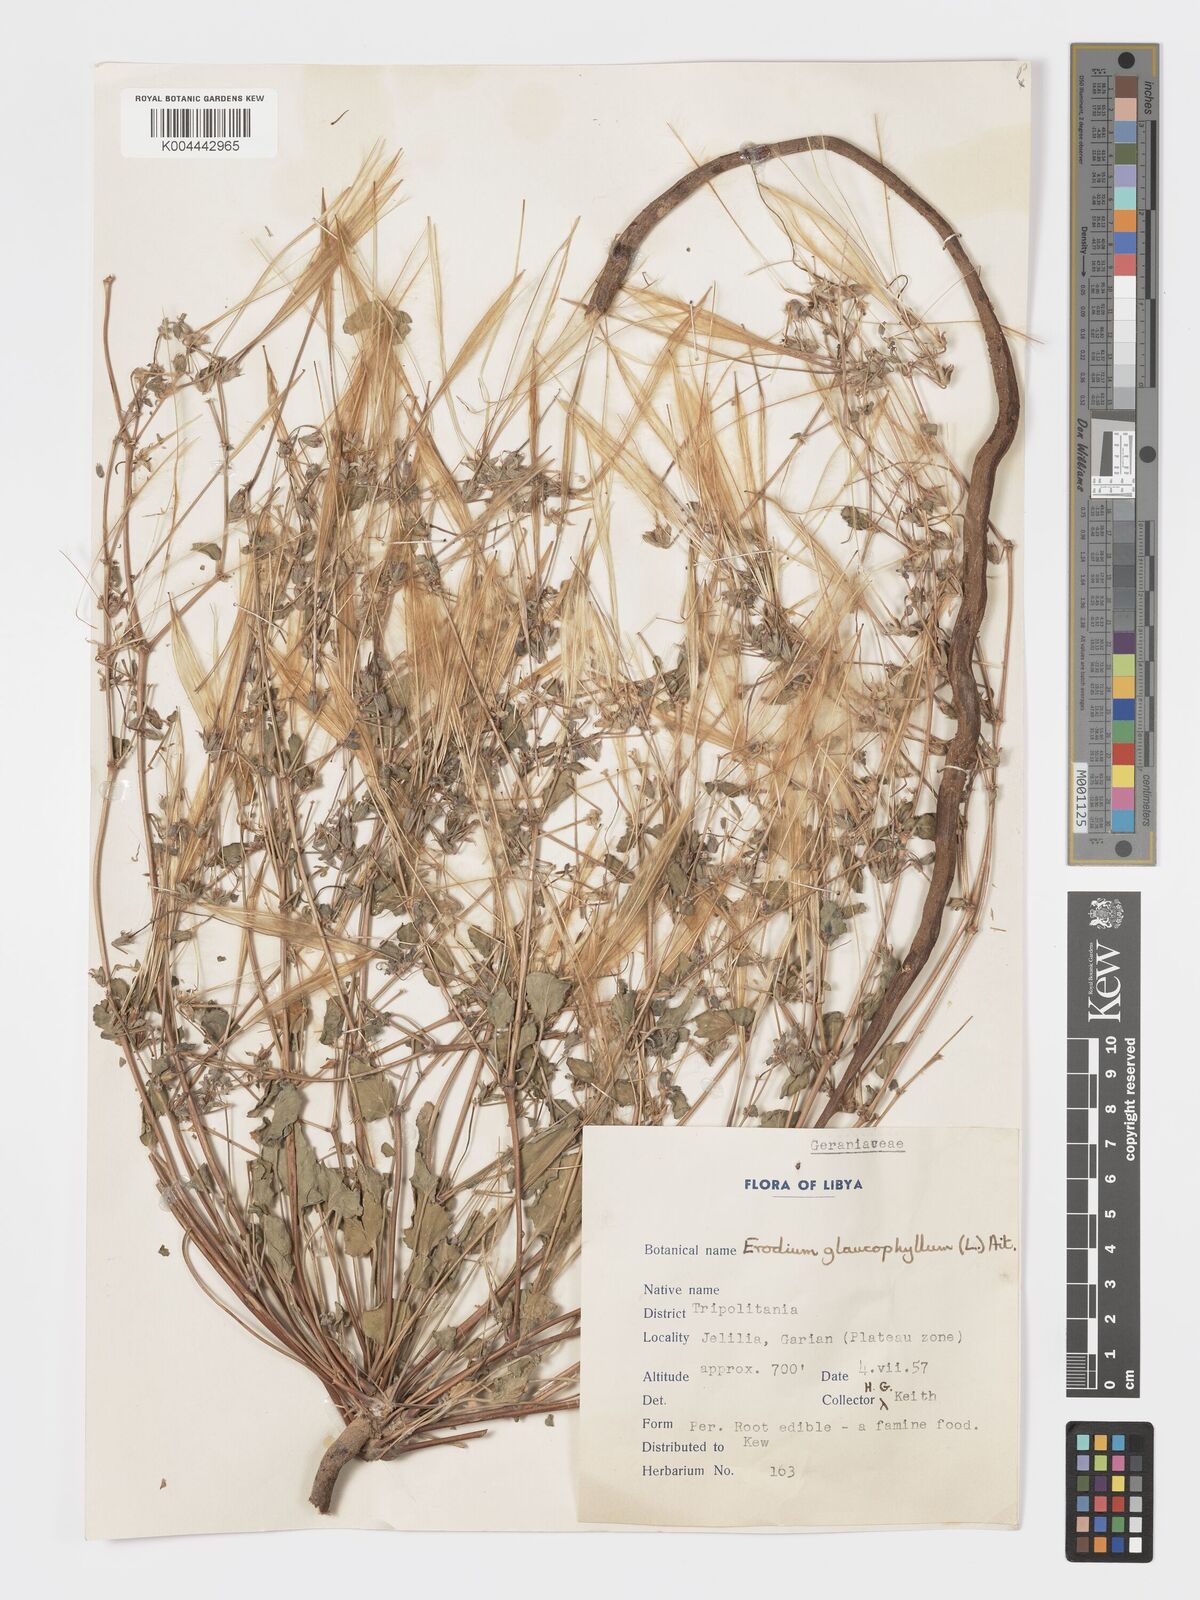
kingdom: Plantae
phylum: Tracheophyta
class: Magnoliopsida
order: Geraniales
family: Geraniaceae
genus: Erodium
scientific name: Erodium glaucophyllum
